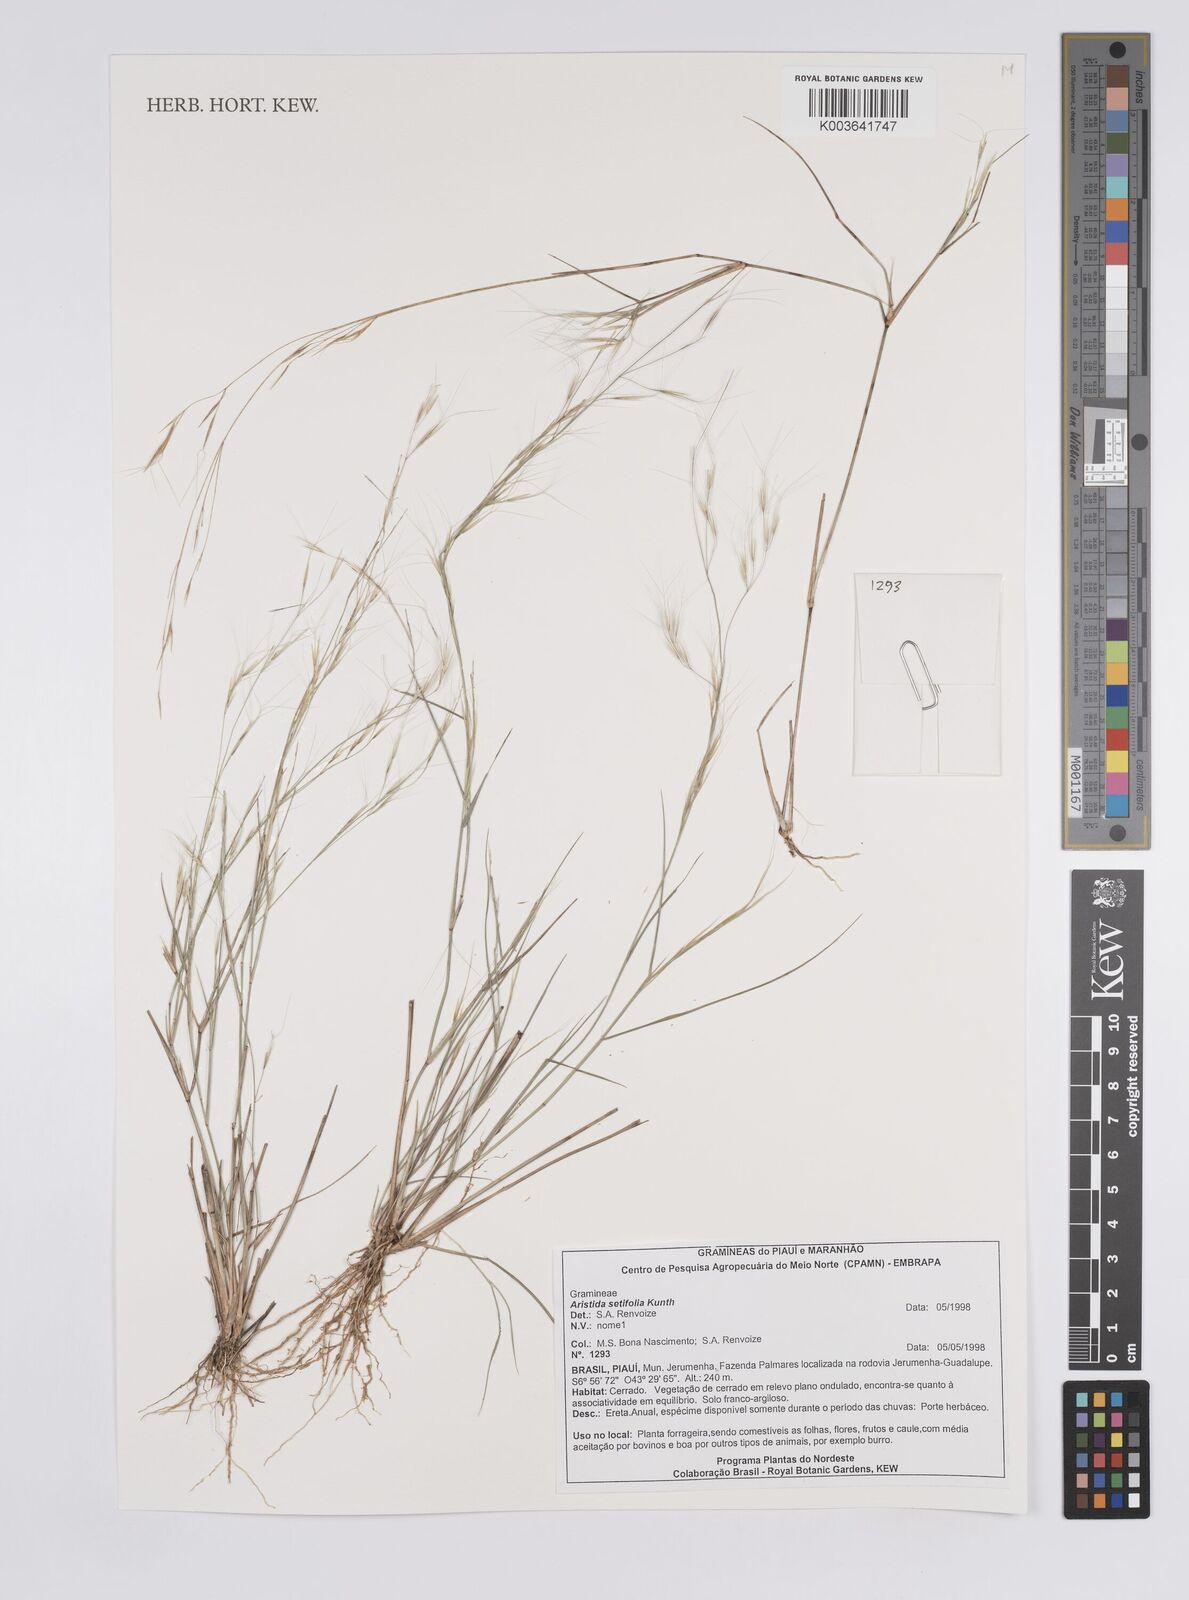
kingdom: Plantae
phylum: Tracheophyta
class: Liliopsida
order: Poales
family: Poaceae
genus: Aristida
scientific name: Aristida setifolia
